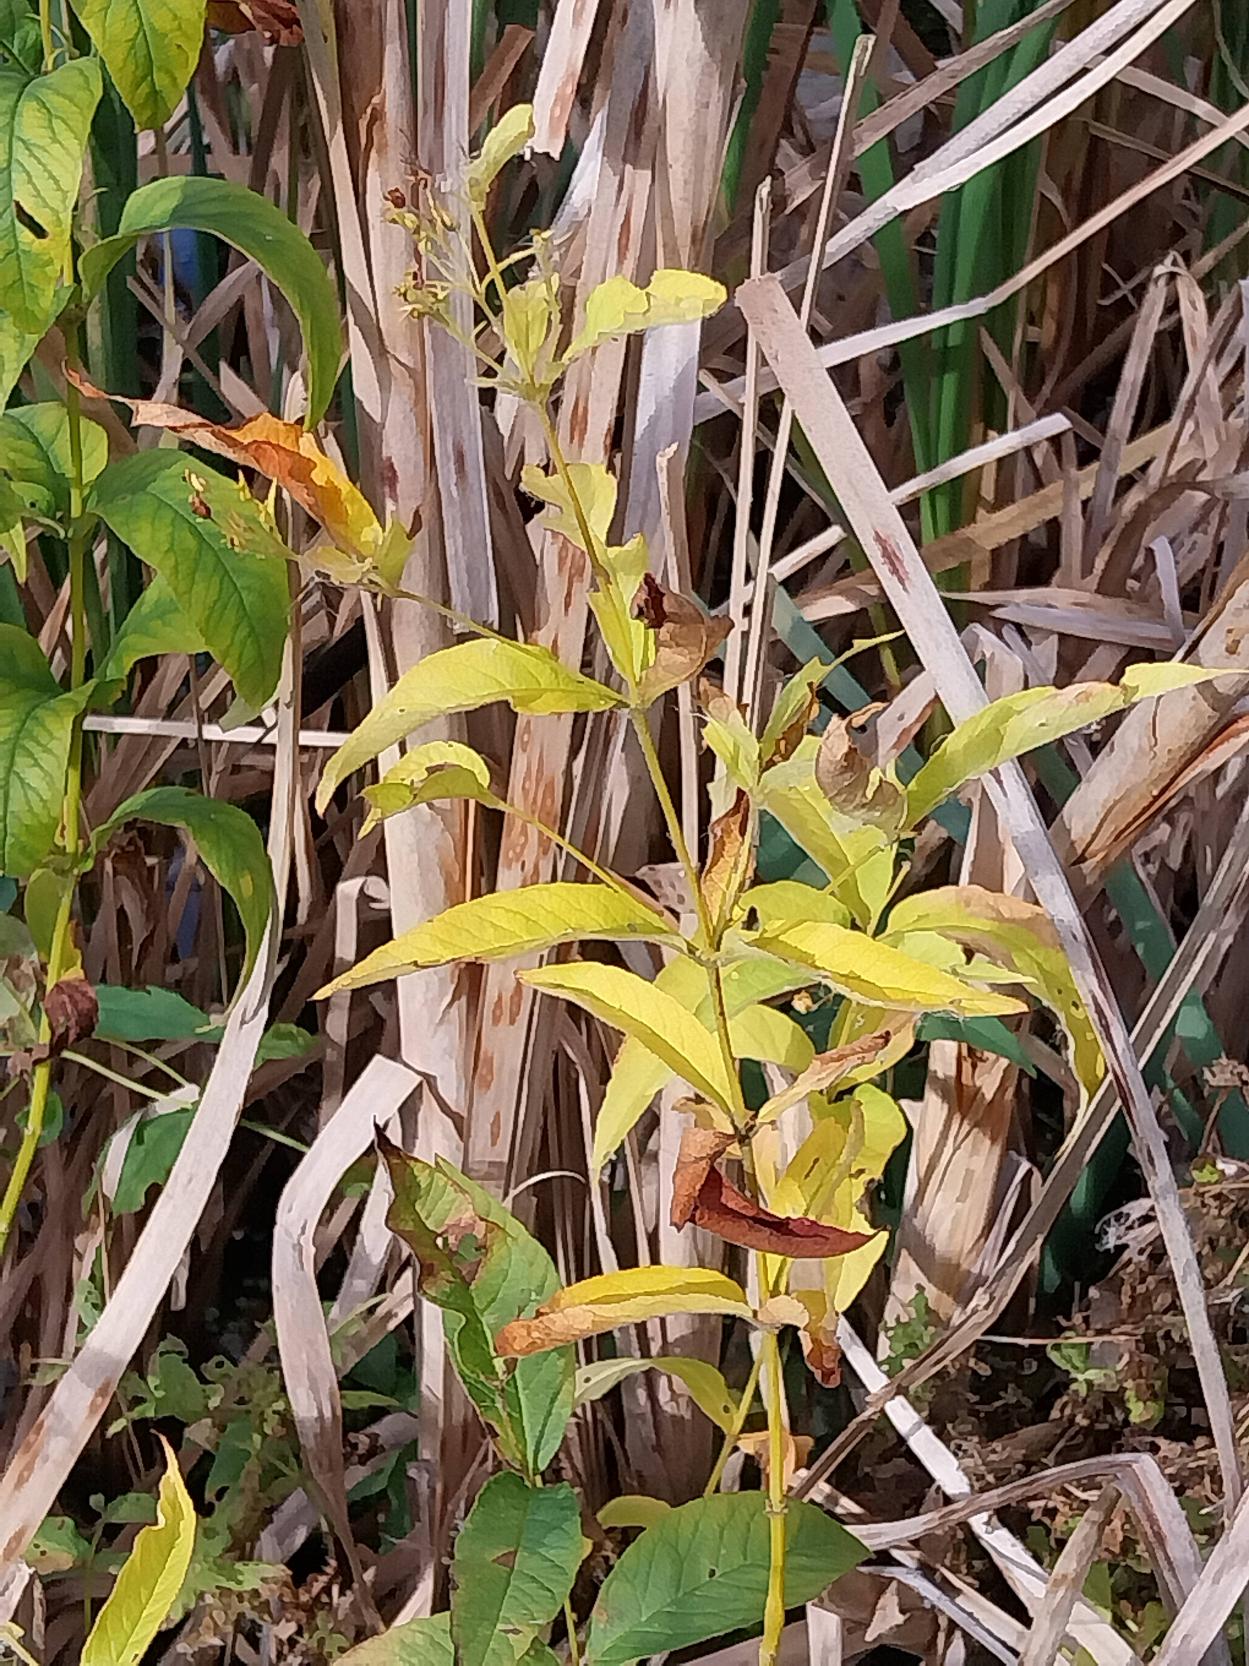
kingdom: Plantae
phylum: Tracheophyta
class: Magnoliopsida
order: Ericales
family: Primulaceae
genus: Lysimachia
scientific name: Lysimachia vulgaris
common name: Almindelig fredløs
